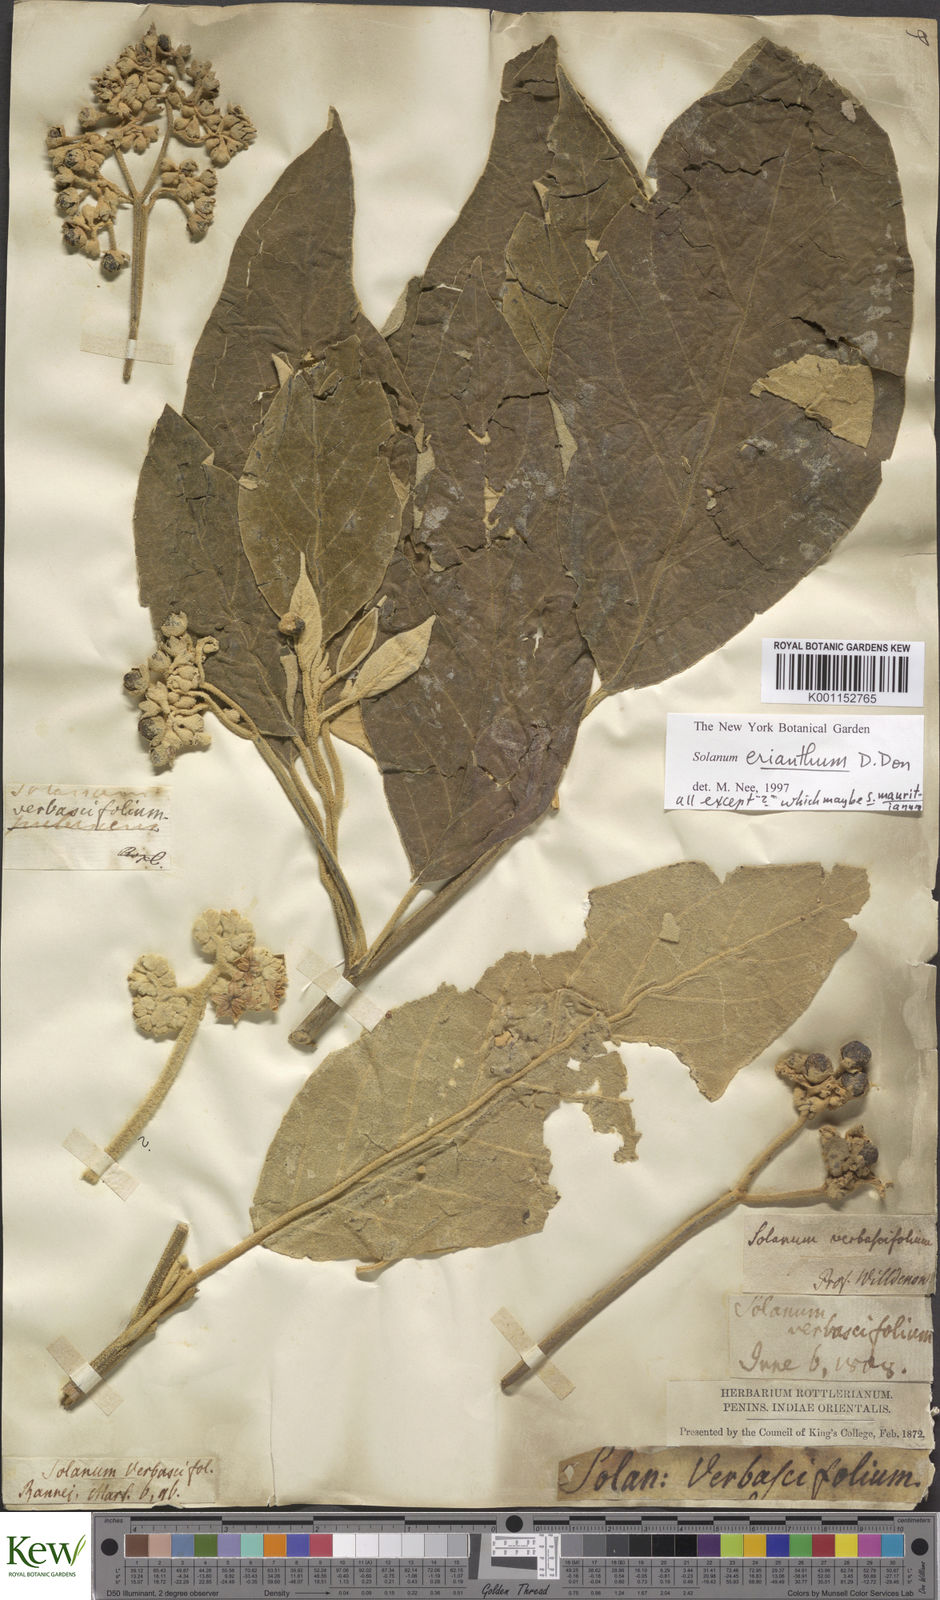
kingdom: Plantae
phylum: Tracheophyta
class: Magnoliopsida
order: Solanales
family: Solanaceae
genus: Solanum
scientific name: Solanum erianthum
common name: Tobacco-tree
